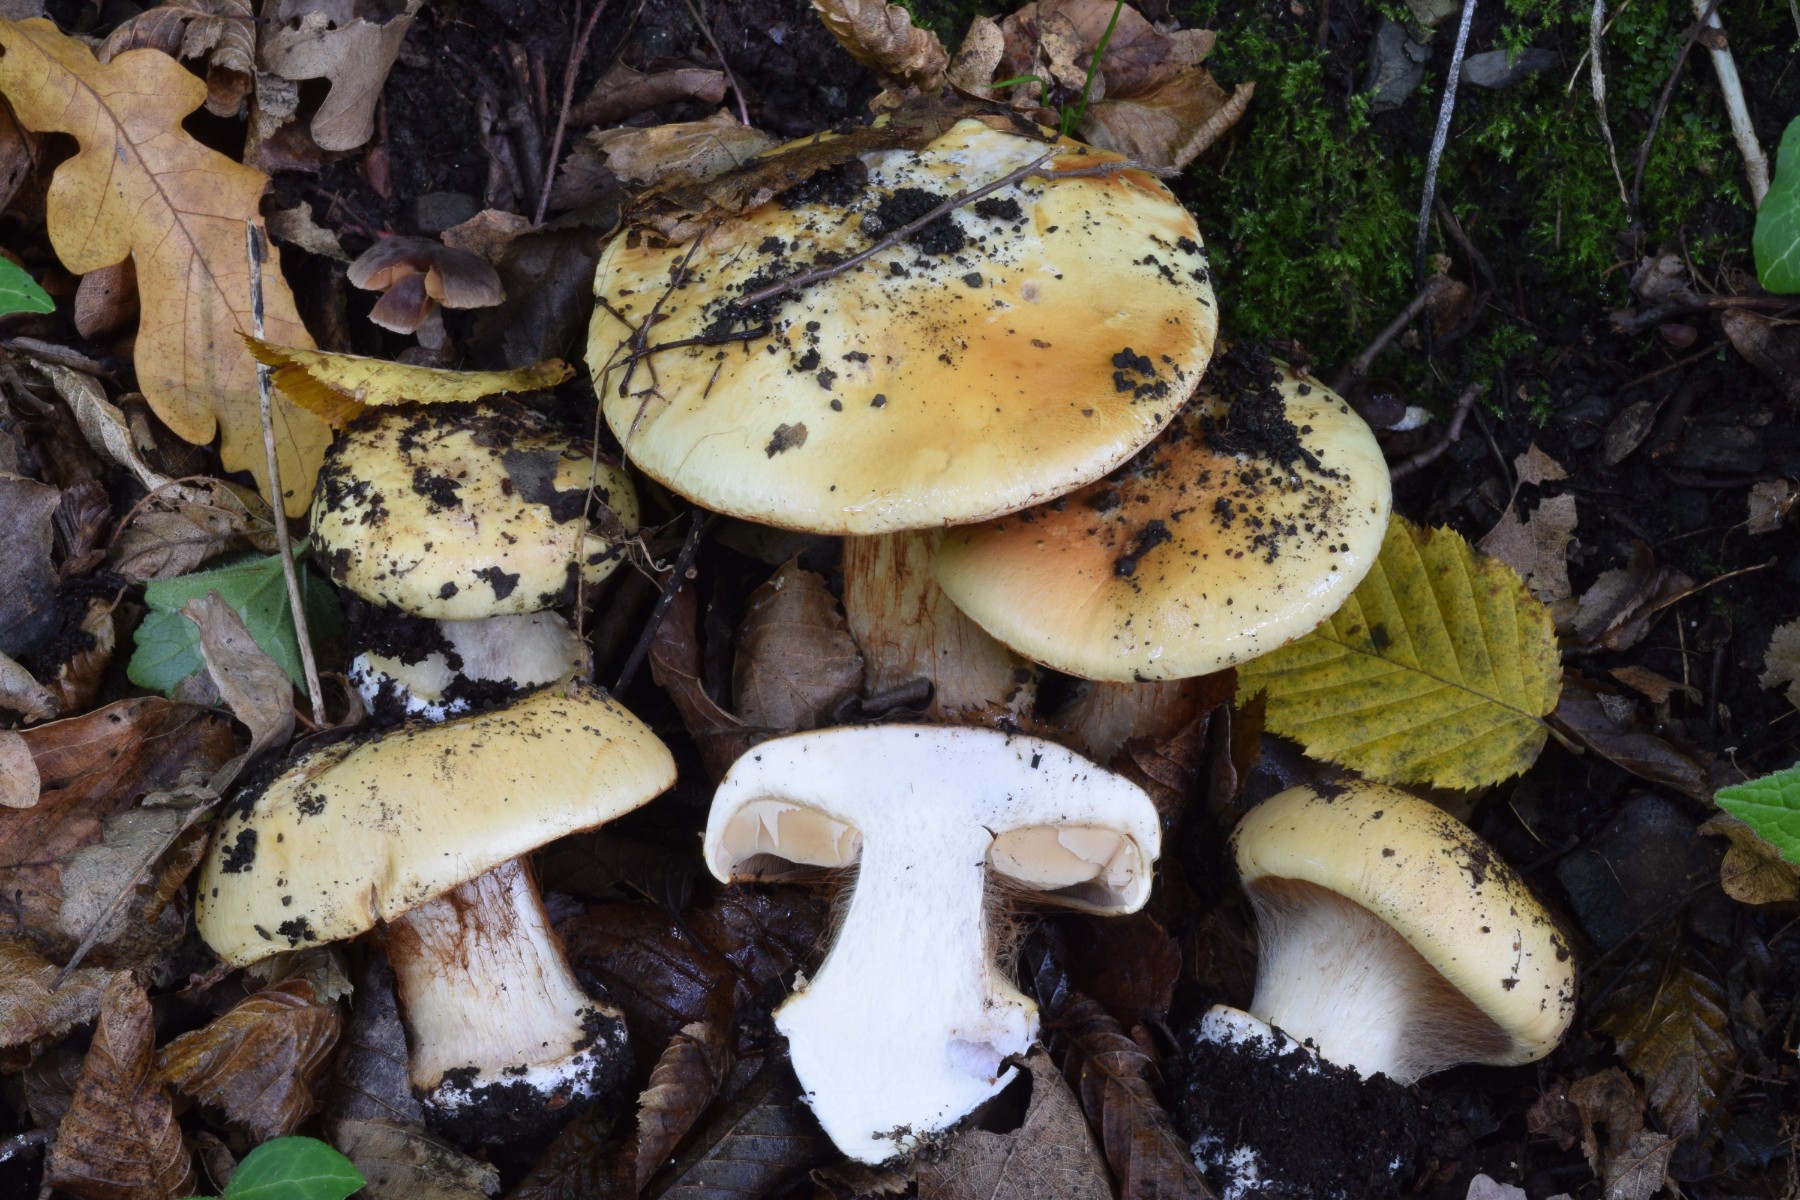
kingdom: Fungi
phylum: Basidiomycota
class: Agaricomycetes
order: Agaricales
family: Cortinariaceae
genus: Calonarius
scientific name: Calonarius lavandulochlorus
